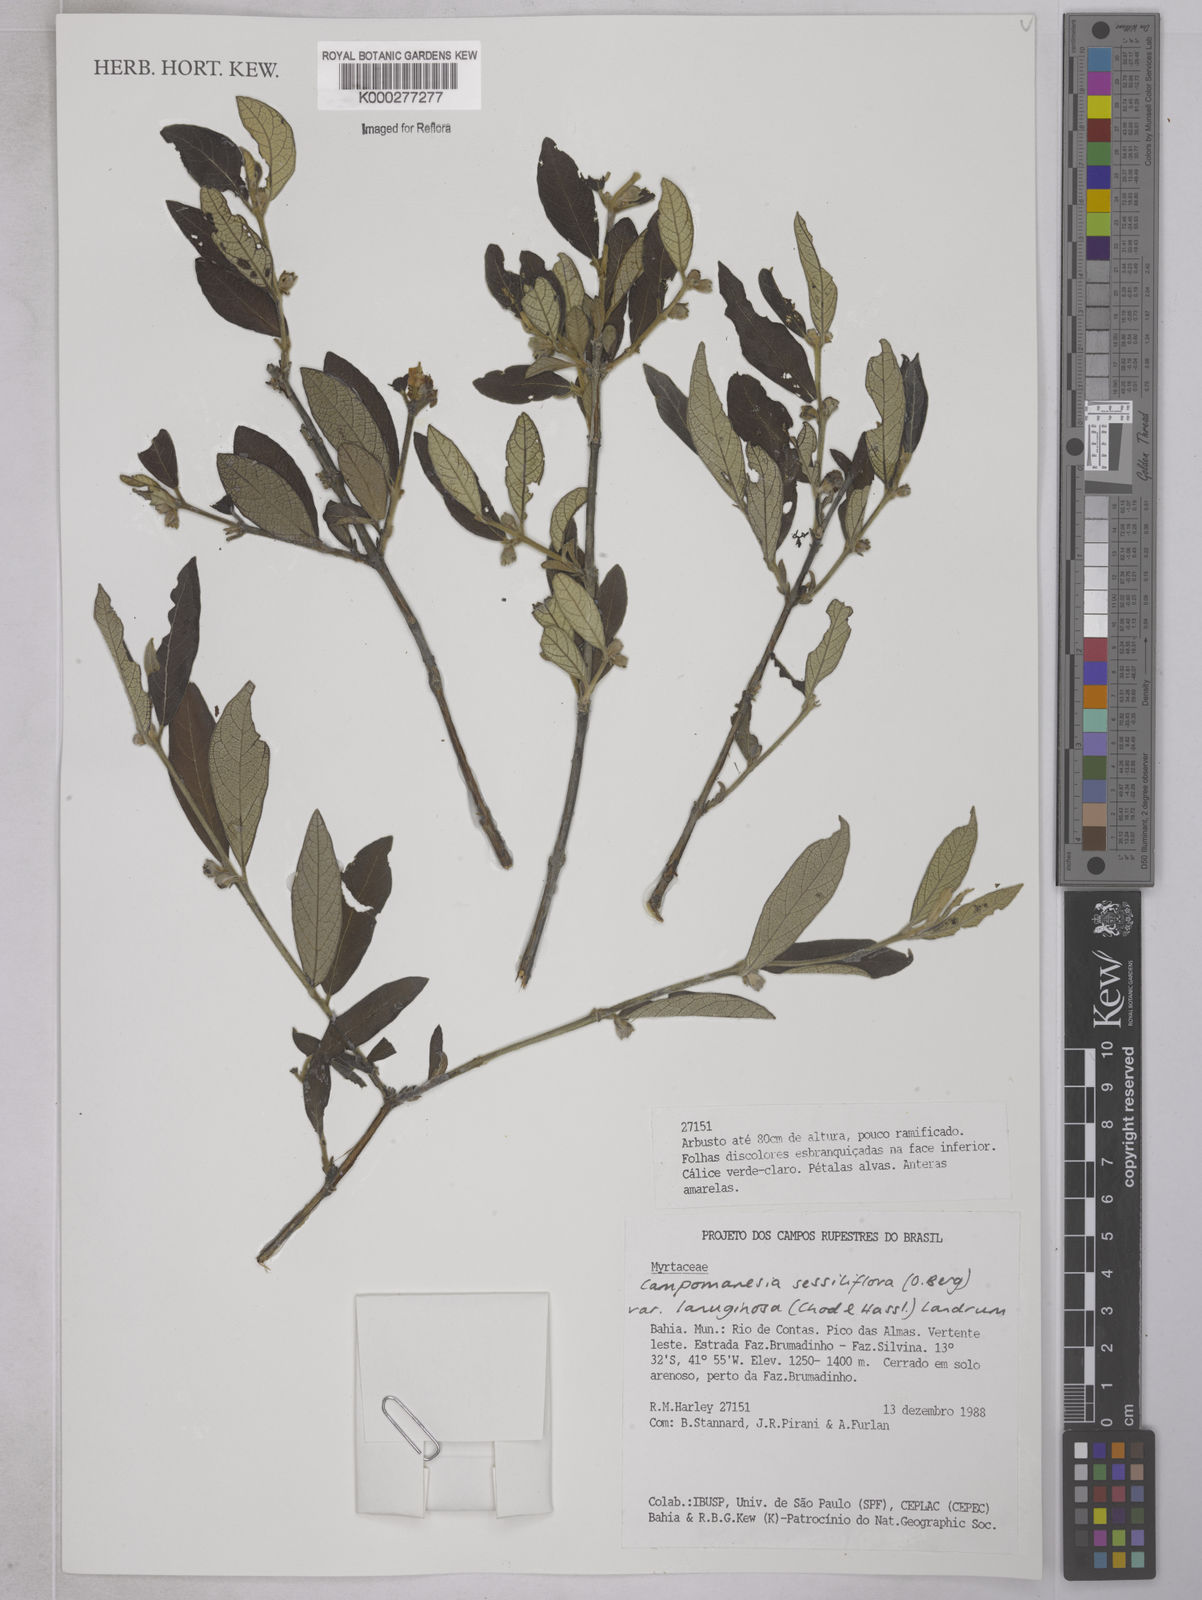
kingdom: Plantae
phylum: Tracheophyta
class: Magnoliopsida
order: Myrtales
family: Myrtaceae
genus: Campomanesia
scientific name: Campomanesia sessiliflora
